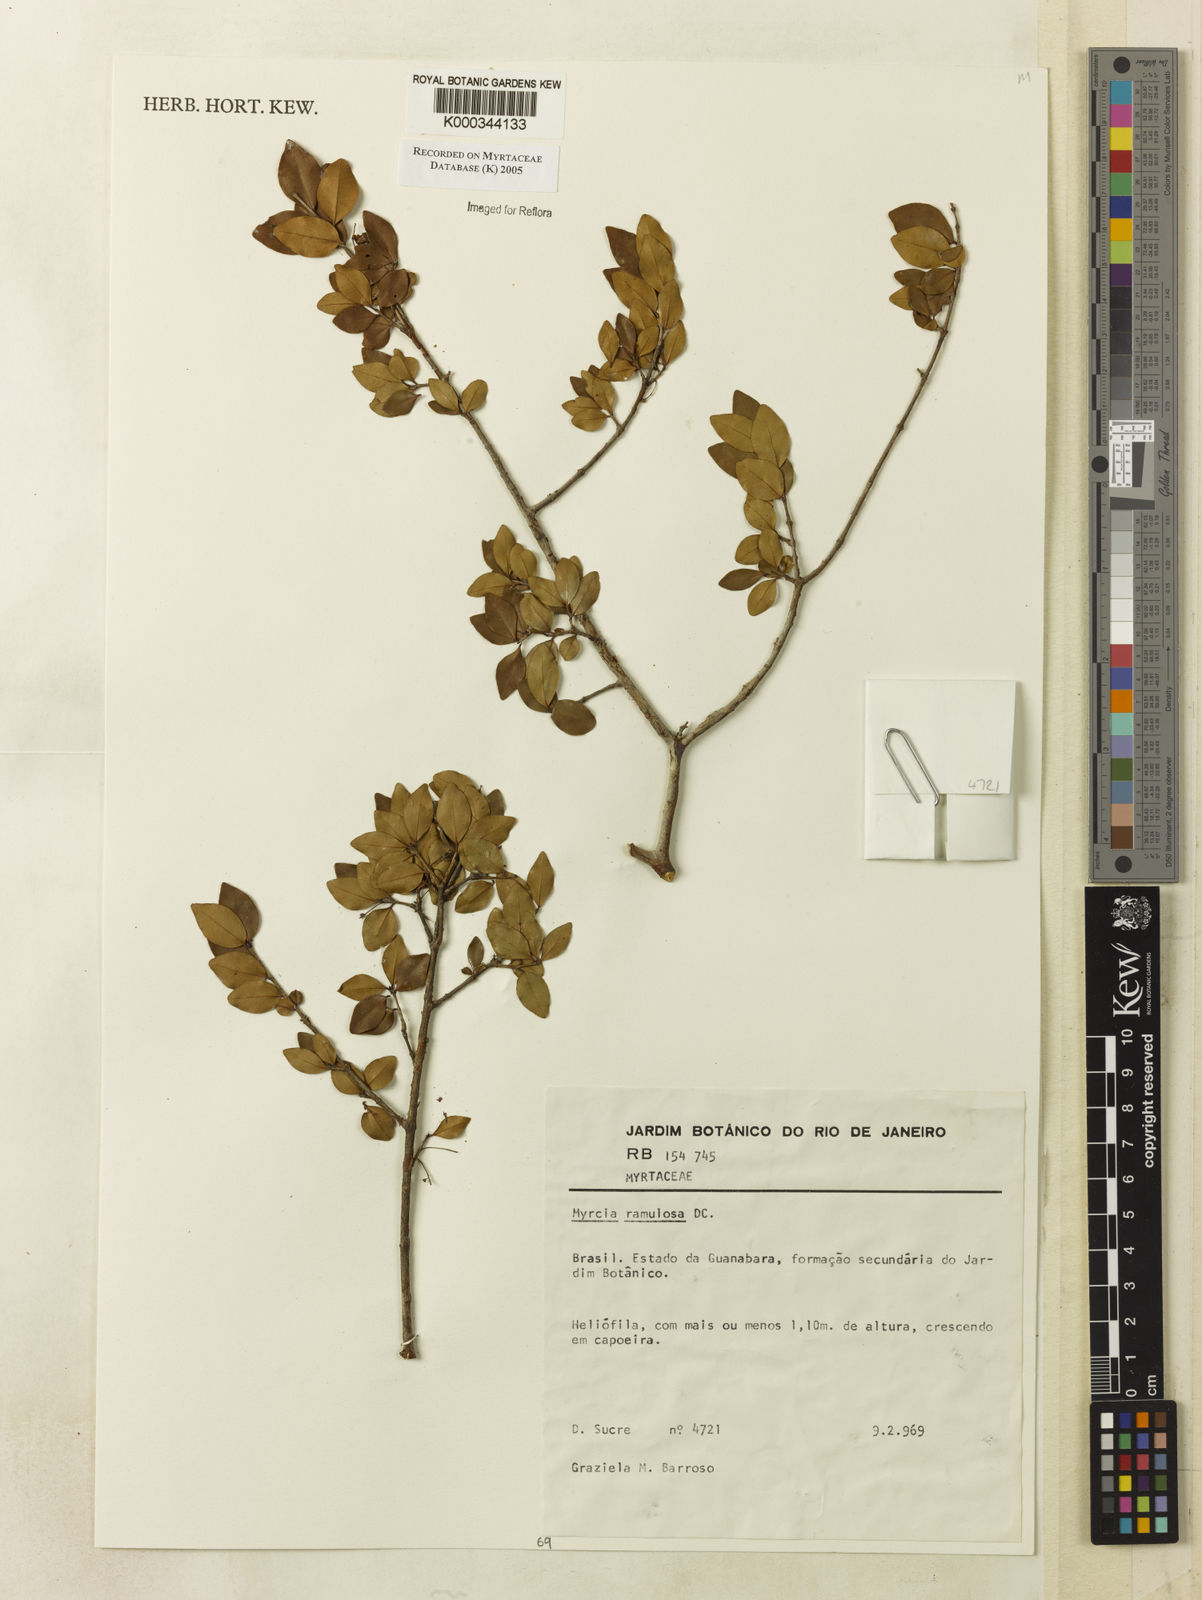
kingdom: Plantae
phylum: Tracheophyta
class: Magnoliopsida
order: Myrtales
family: Myrtaceae
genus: Myrcia
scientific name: Myrcia selloi
